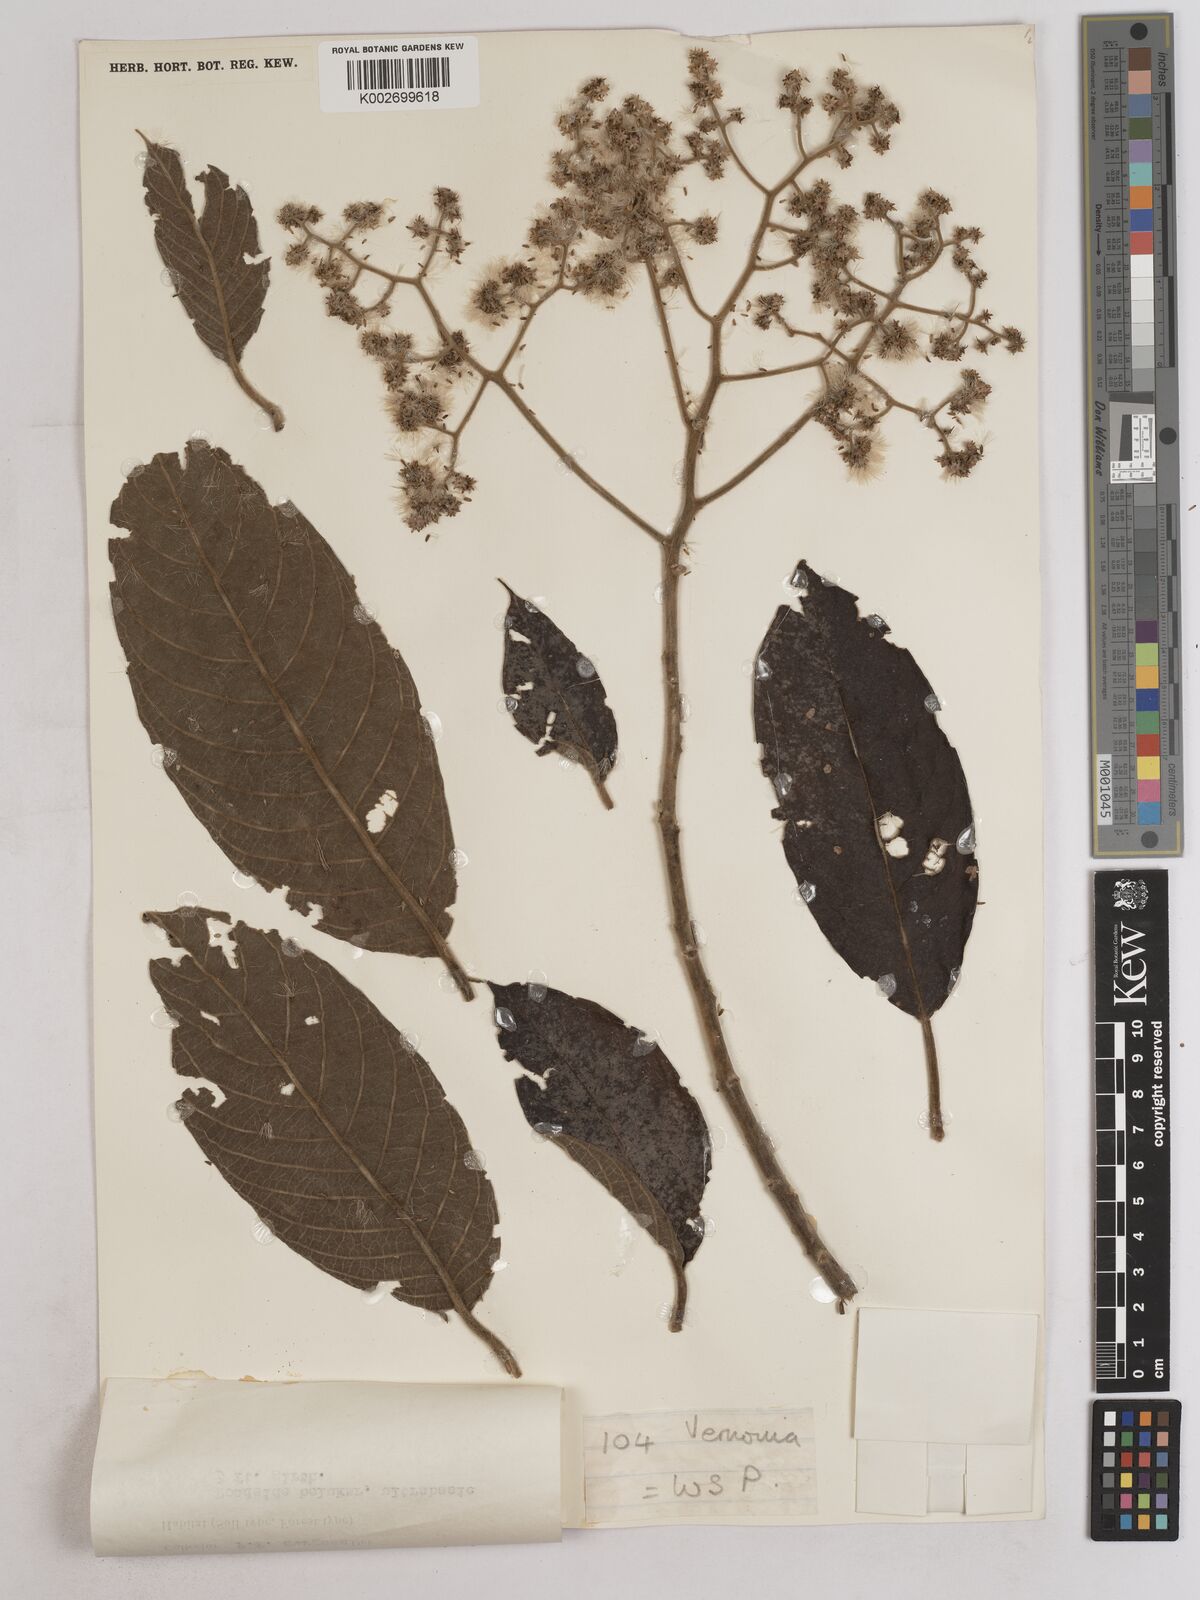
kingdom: Plantae
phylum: Tracheophyta
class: Magnoliopsida
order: Asterales
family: Asteraceae
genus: Strobocalyx
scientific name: Strobocalyx arborea
